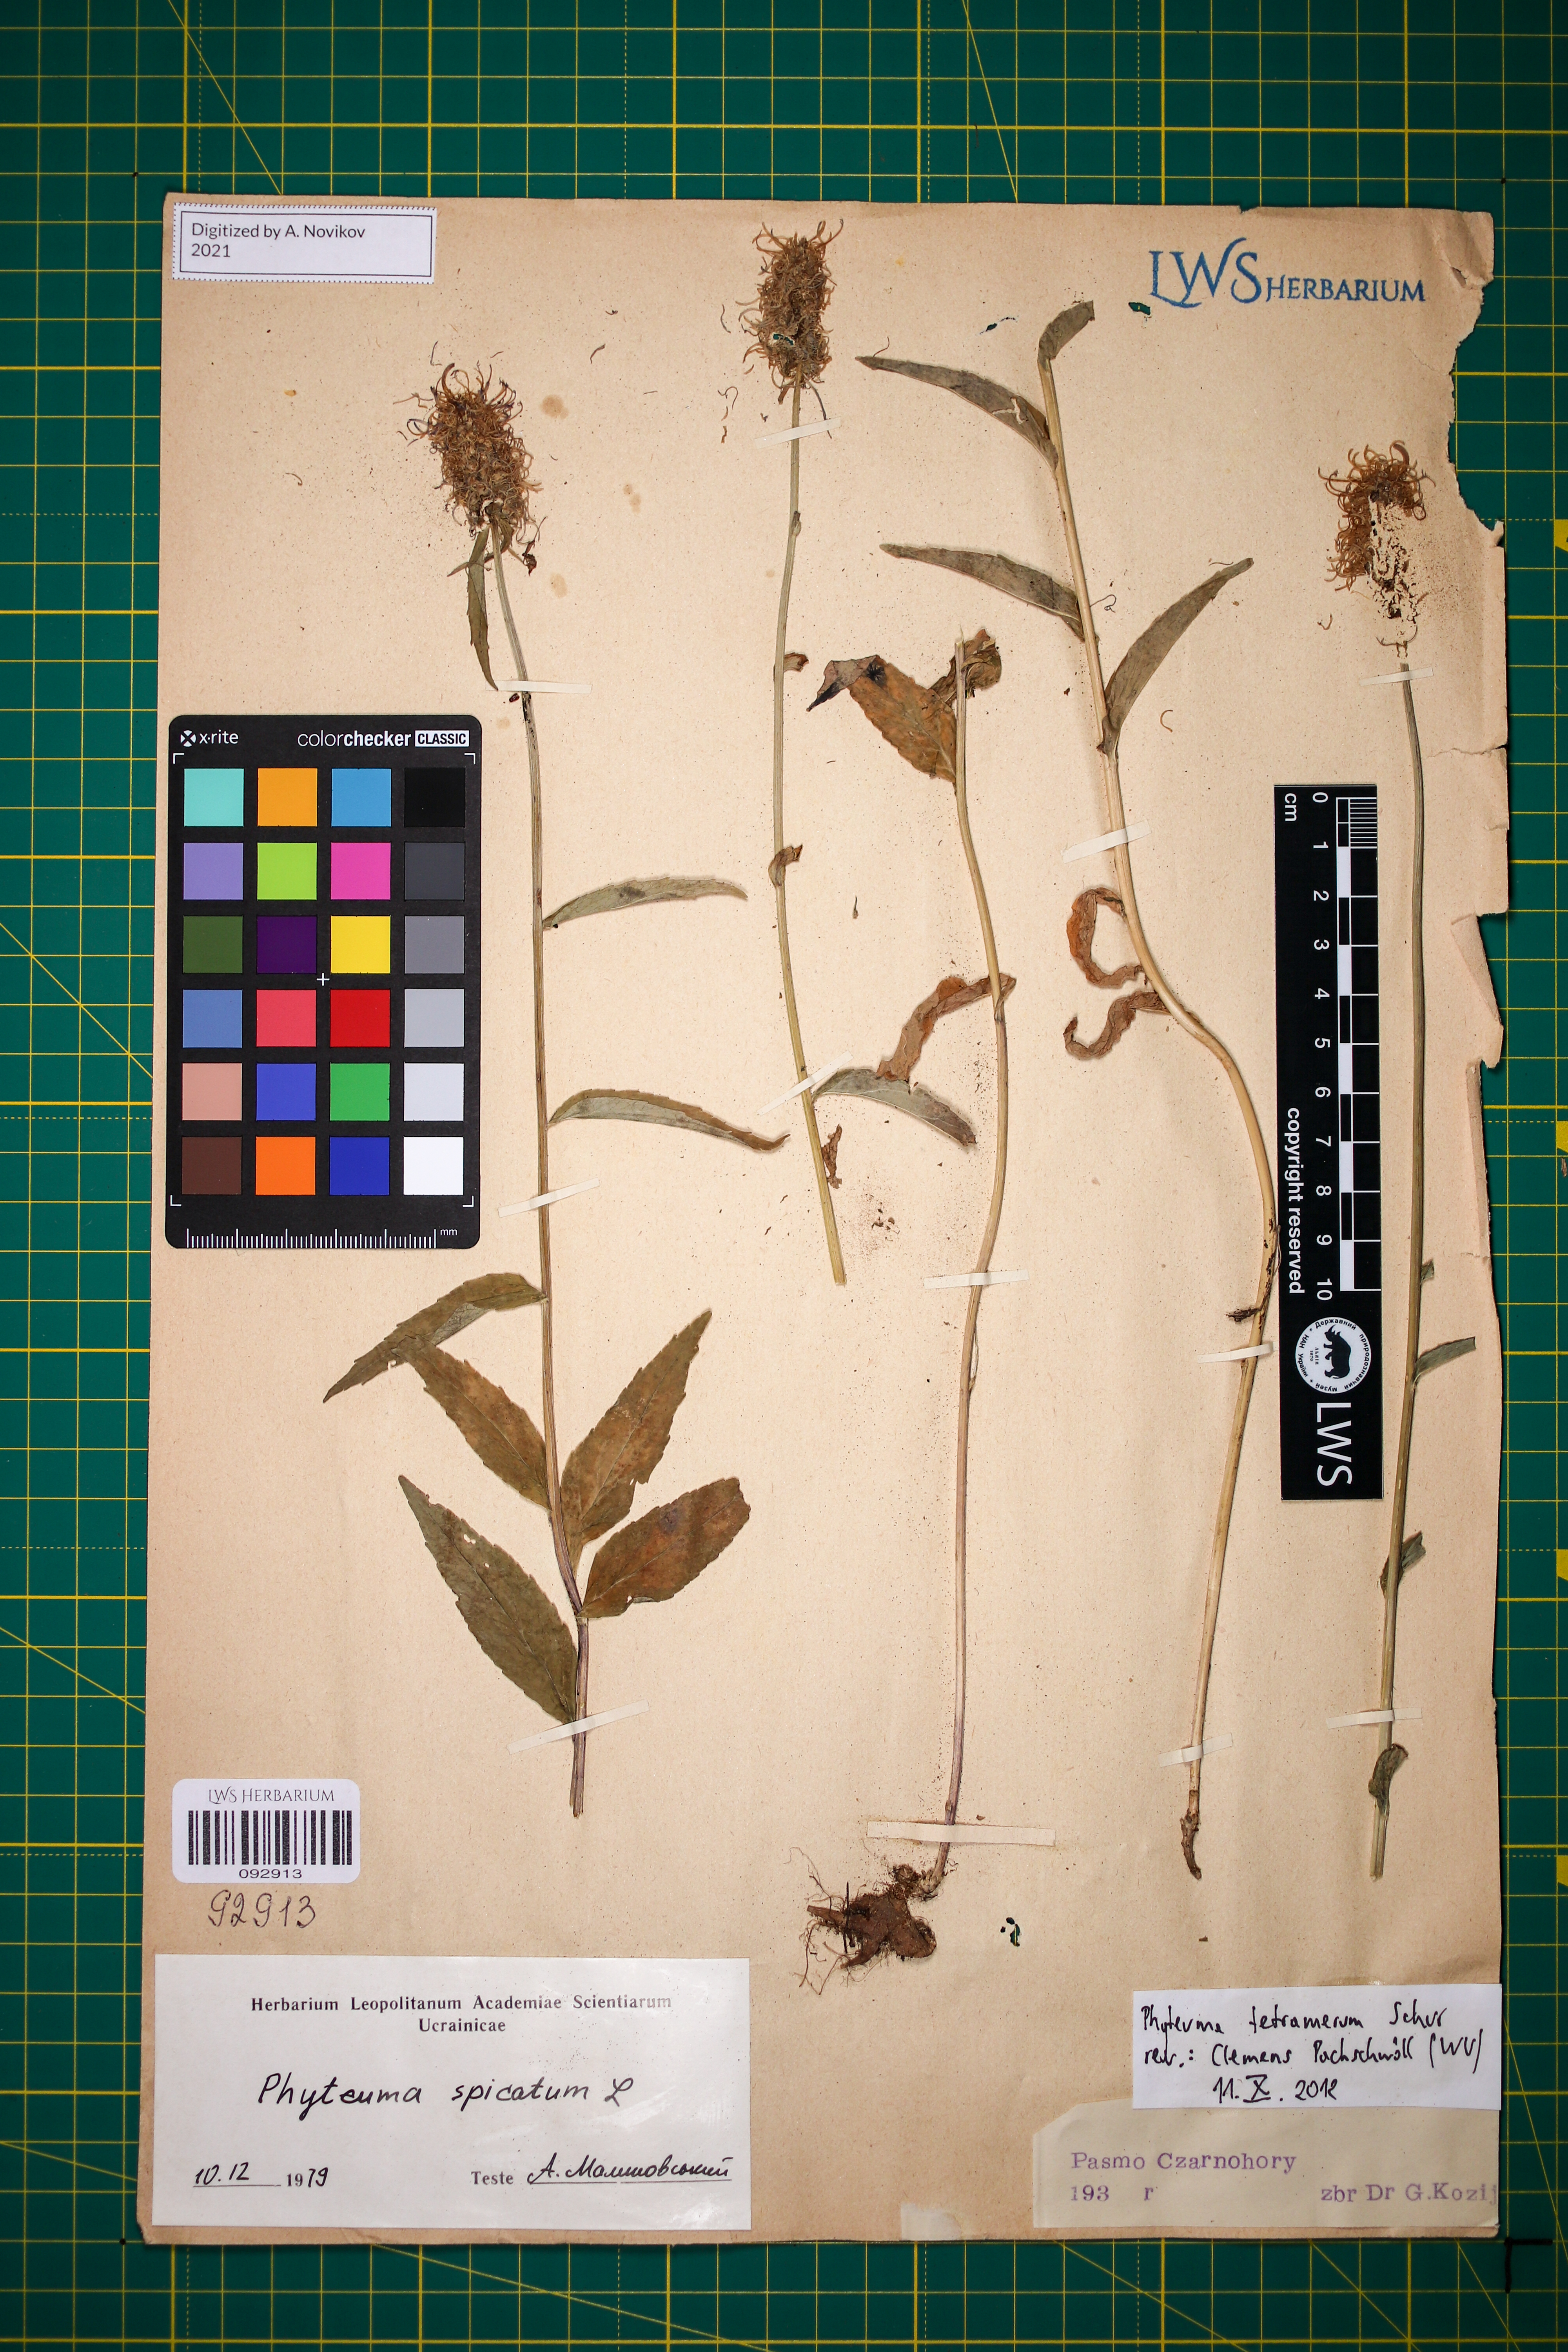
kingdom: Plantae
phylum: Tracheophyta
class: Magnoliopsida
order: Asterales
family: Campanulaceae
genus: Phyteuma
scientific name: Phyteuma tetramerum
